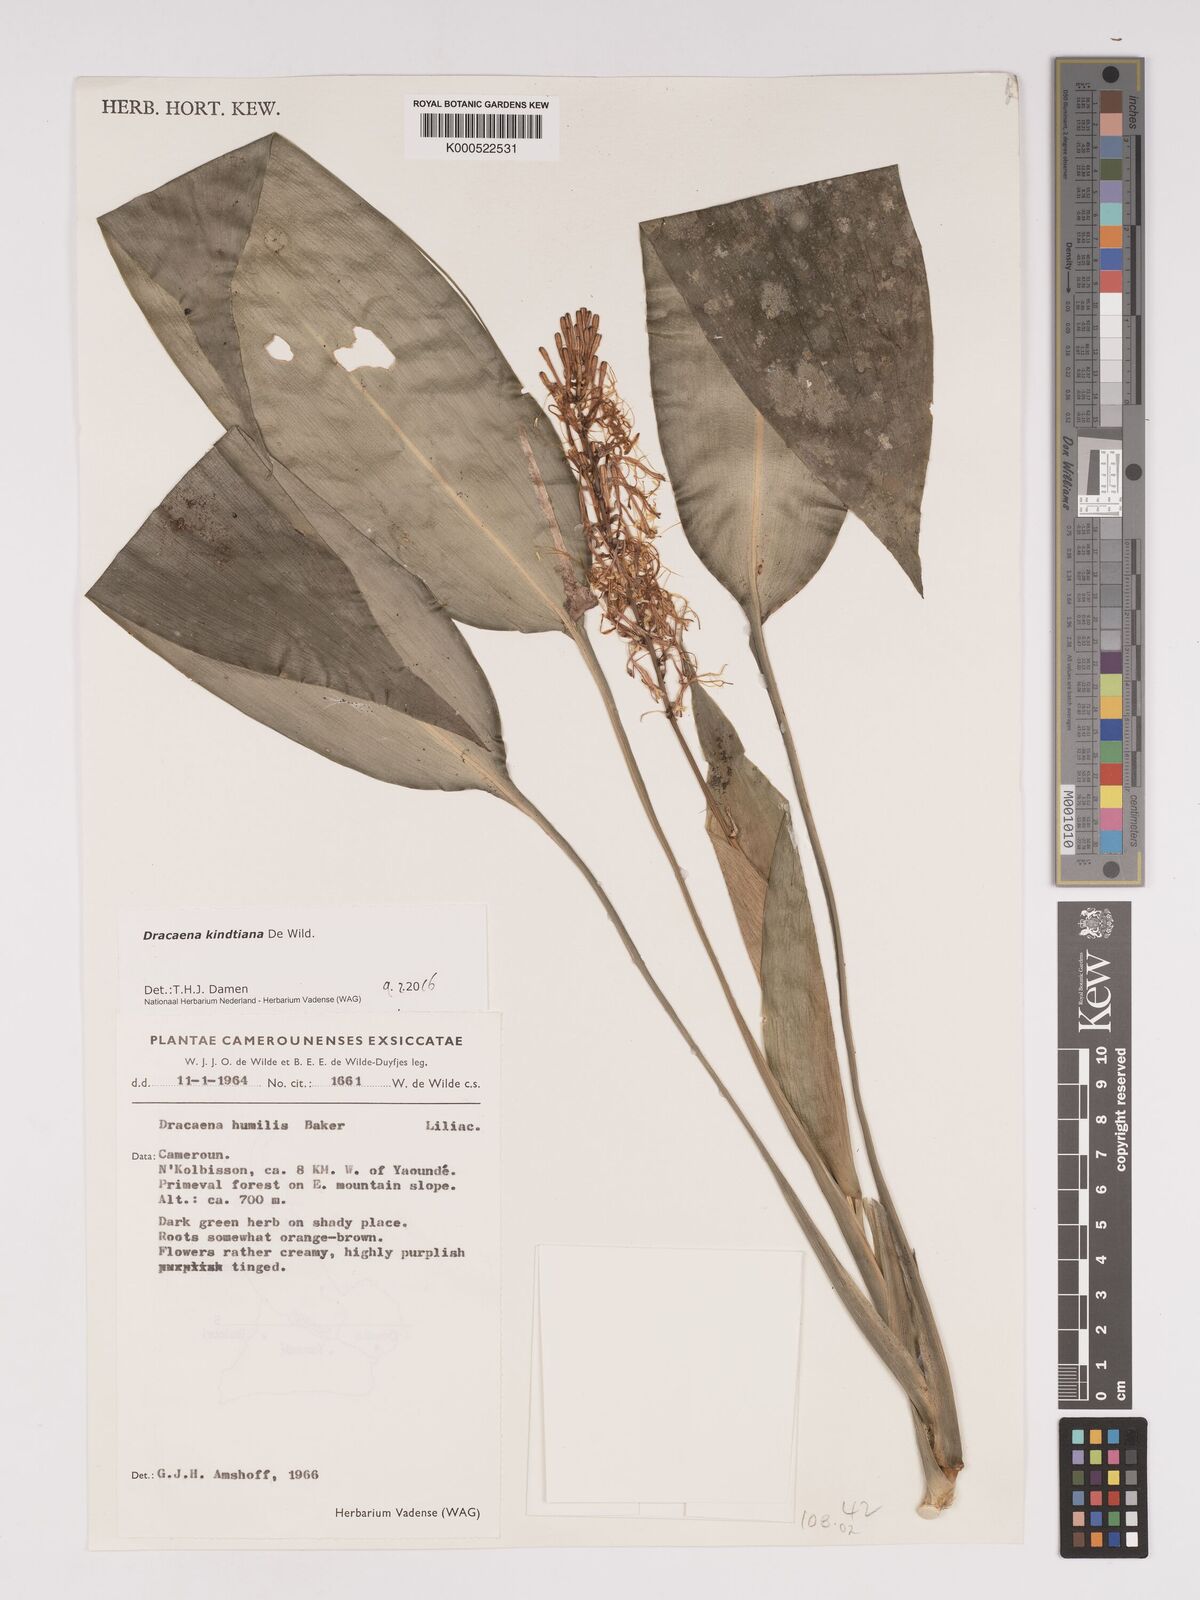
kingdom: Plantae
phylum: Tracheophyta
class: Liliopsida
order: Asparagales
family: Asparagaceae
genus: Dracaena
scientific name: Dracaena kindtiana
